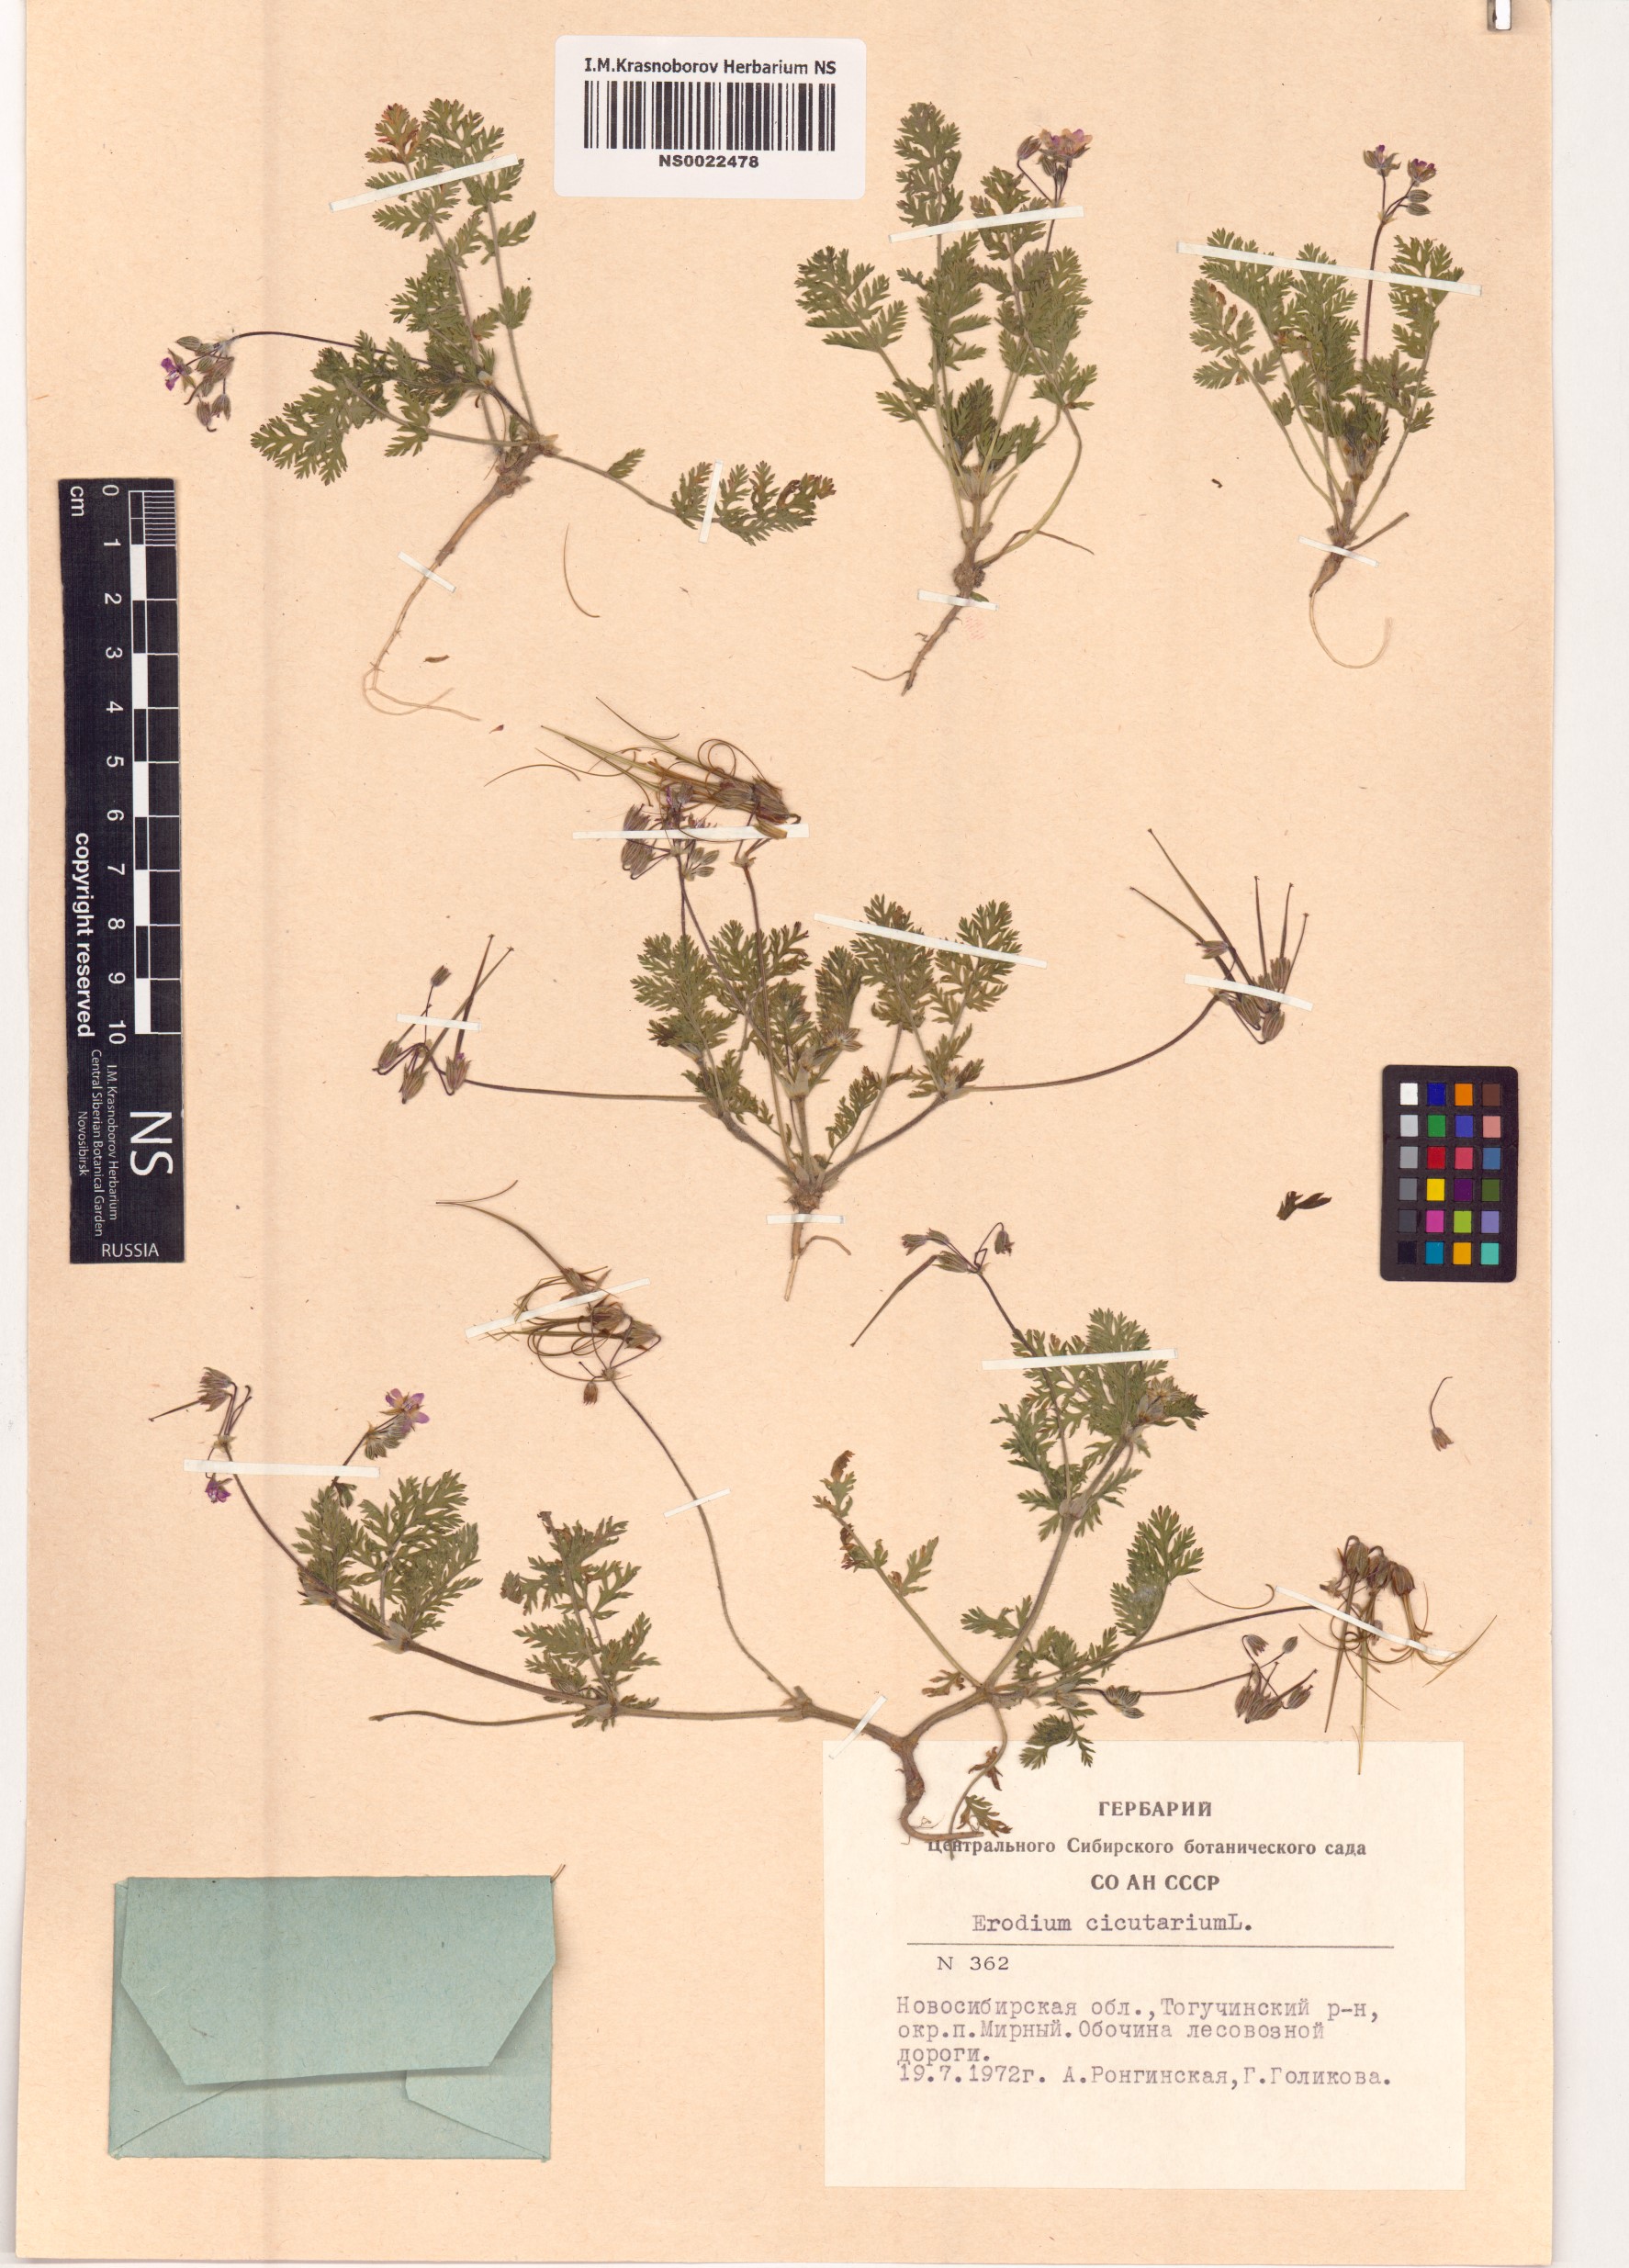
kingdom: Plantae
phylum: Tracheophyta
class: Magnoliopsida
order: Geraniales
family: Geraniaceae
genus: Erodium
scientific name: Erodium cicutarium
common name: Common stork's-bill
